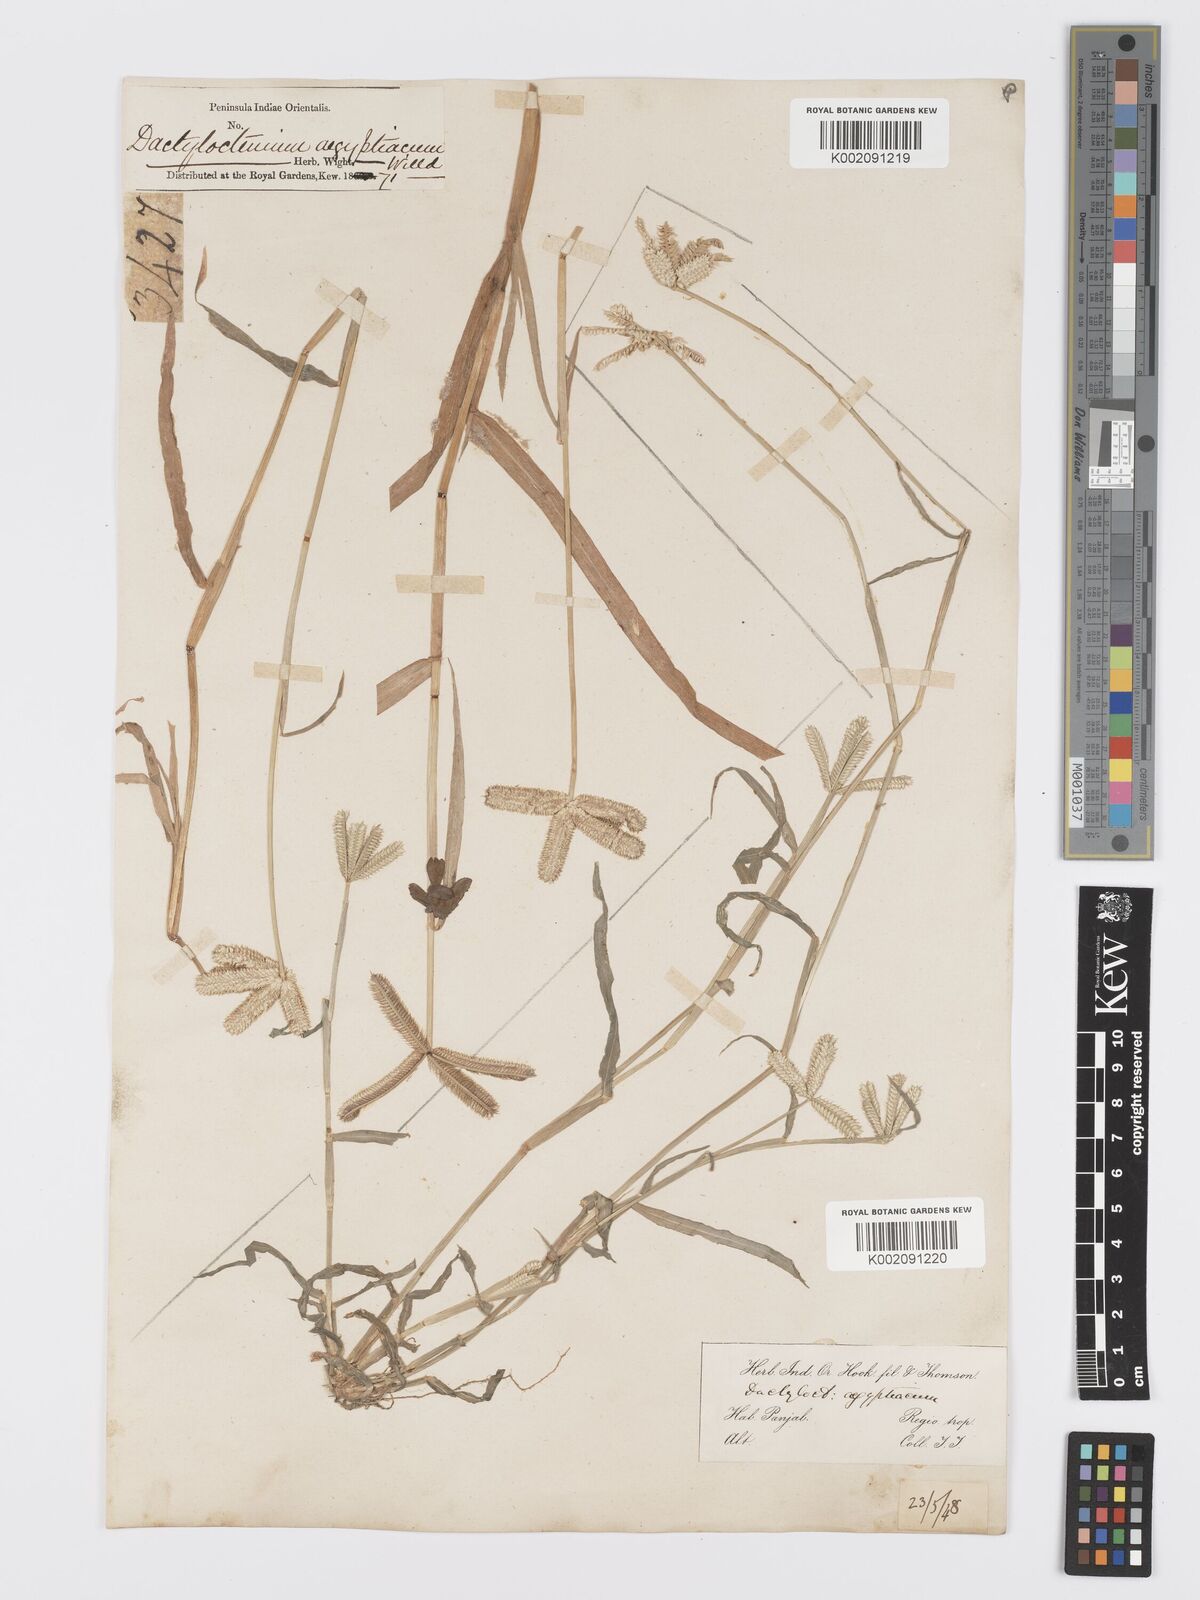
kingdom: Plantae
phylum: Tracheophyta
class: Liliopsida
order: Poales
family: Poaceae
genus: Dactyloctenium
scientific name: Dactyloctenium aegyptium
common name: Egyptian grass
